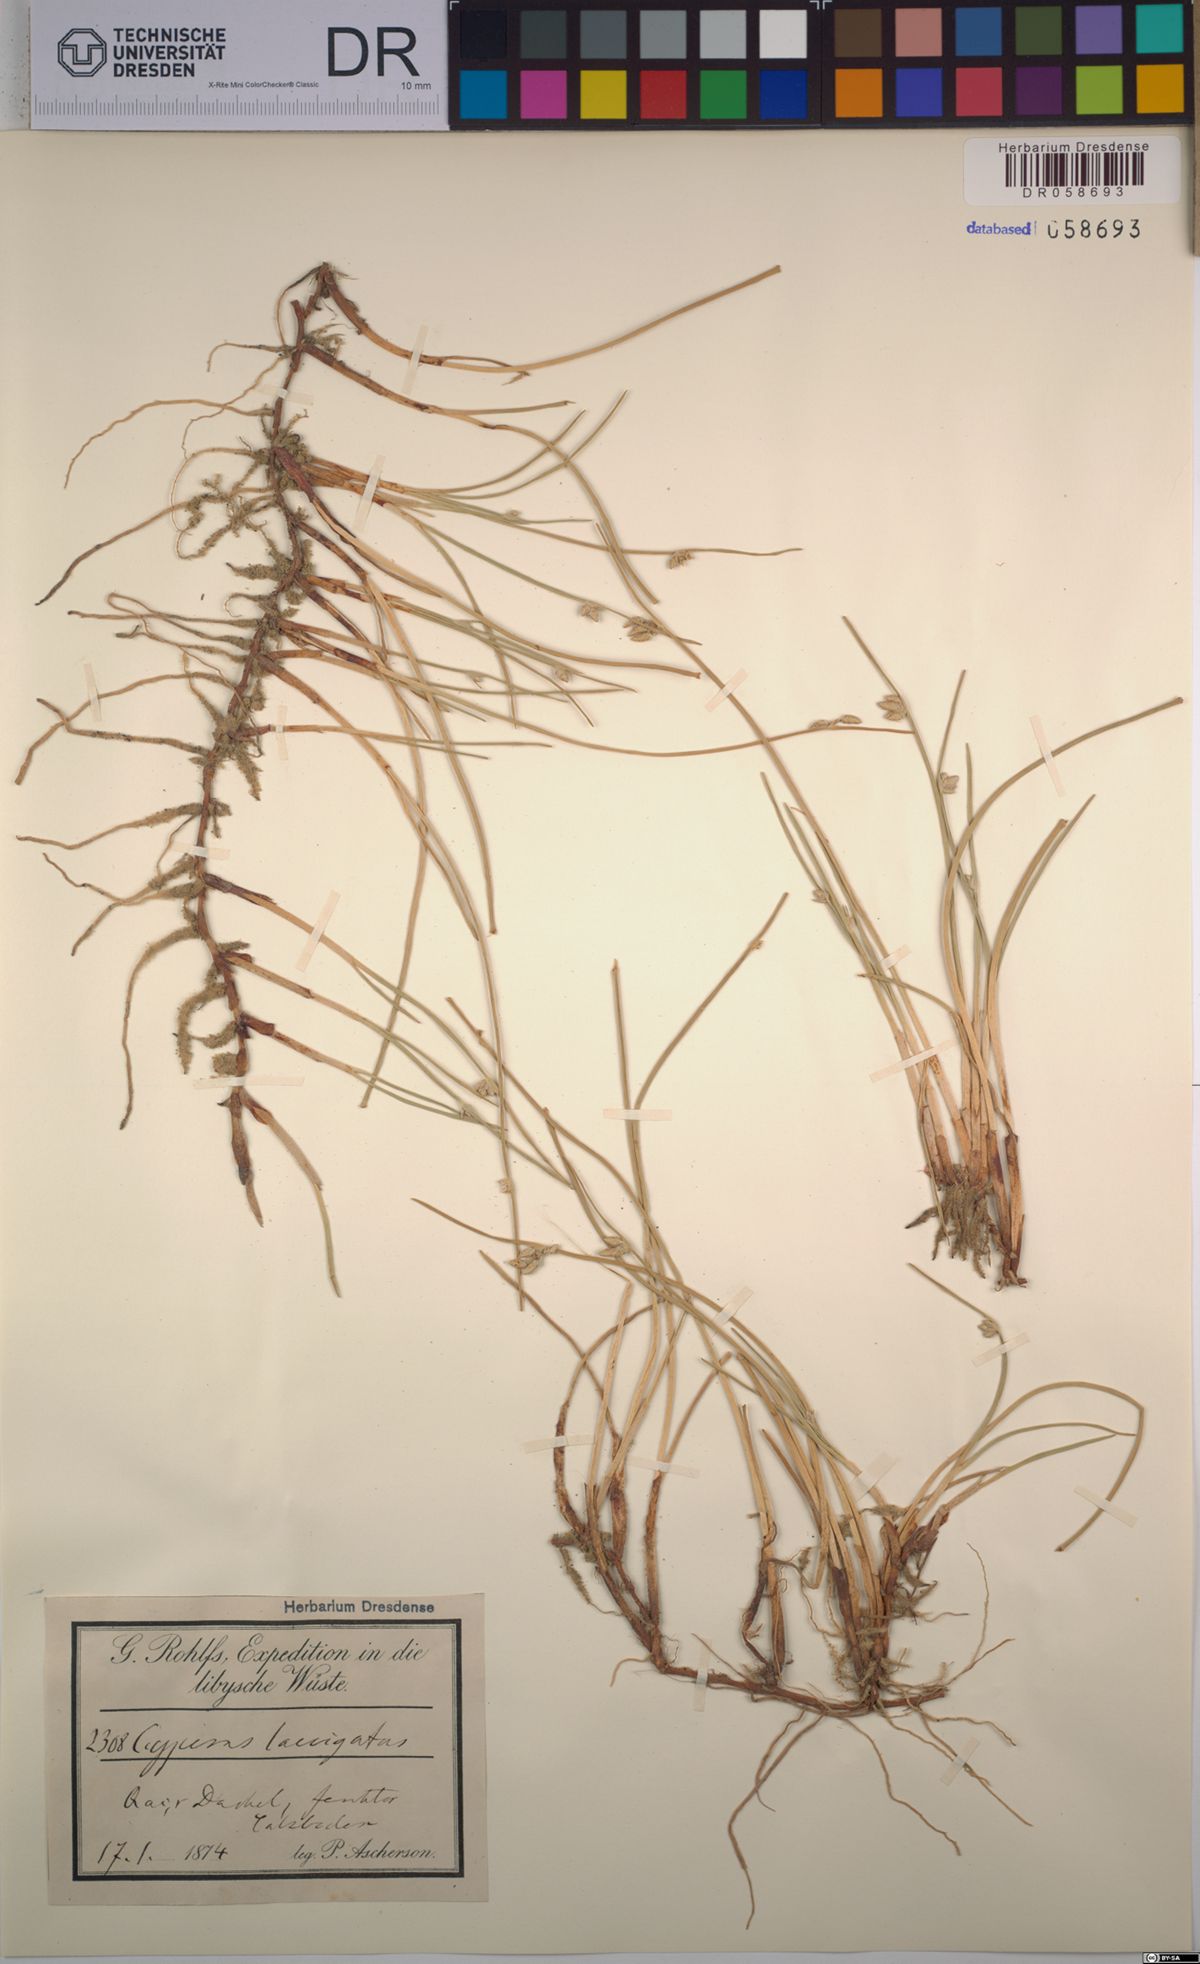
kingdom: Plantae
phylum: Tracheophyta
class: Liliopsida
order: Poales
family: Cyperaceae
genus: Cyperus
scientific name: Cyperus laevigatus
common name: Smooth flat sedge
